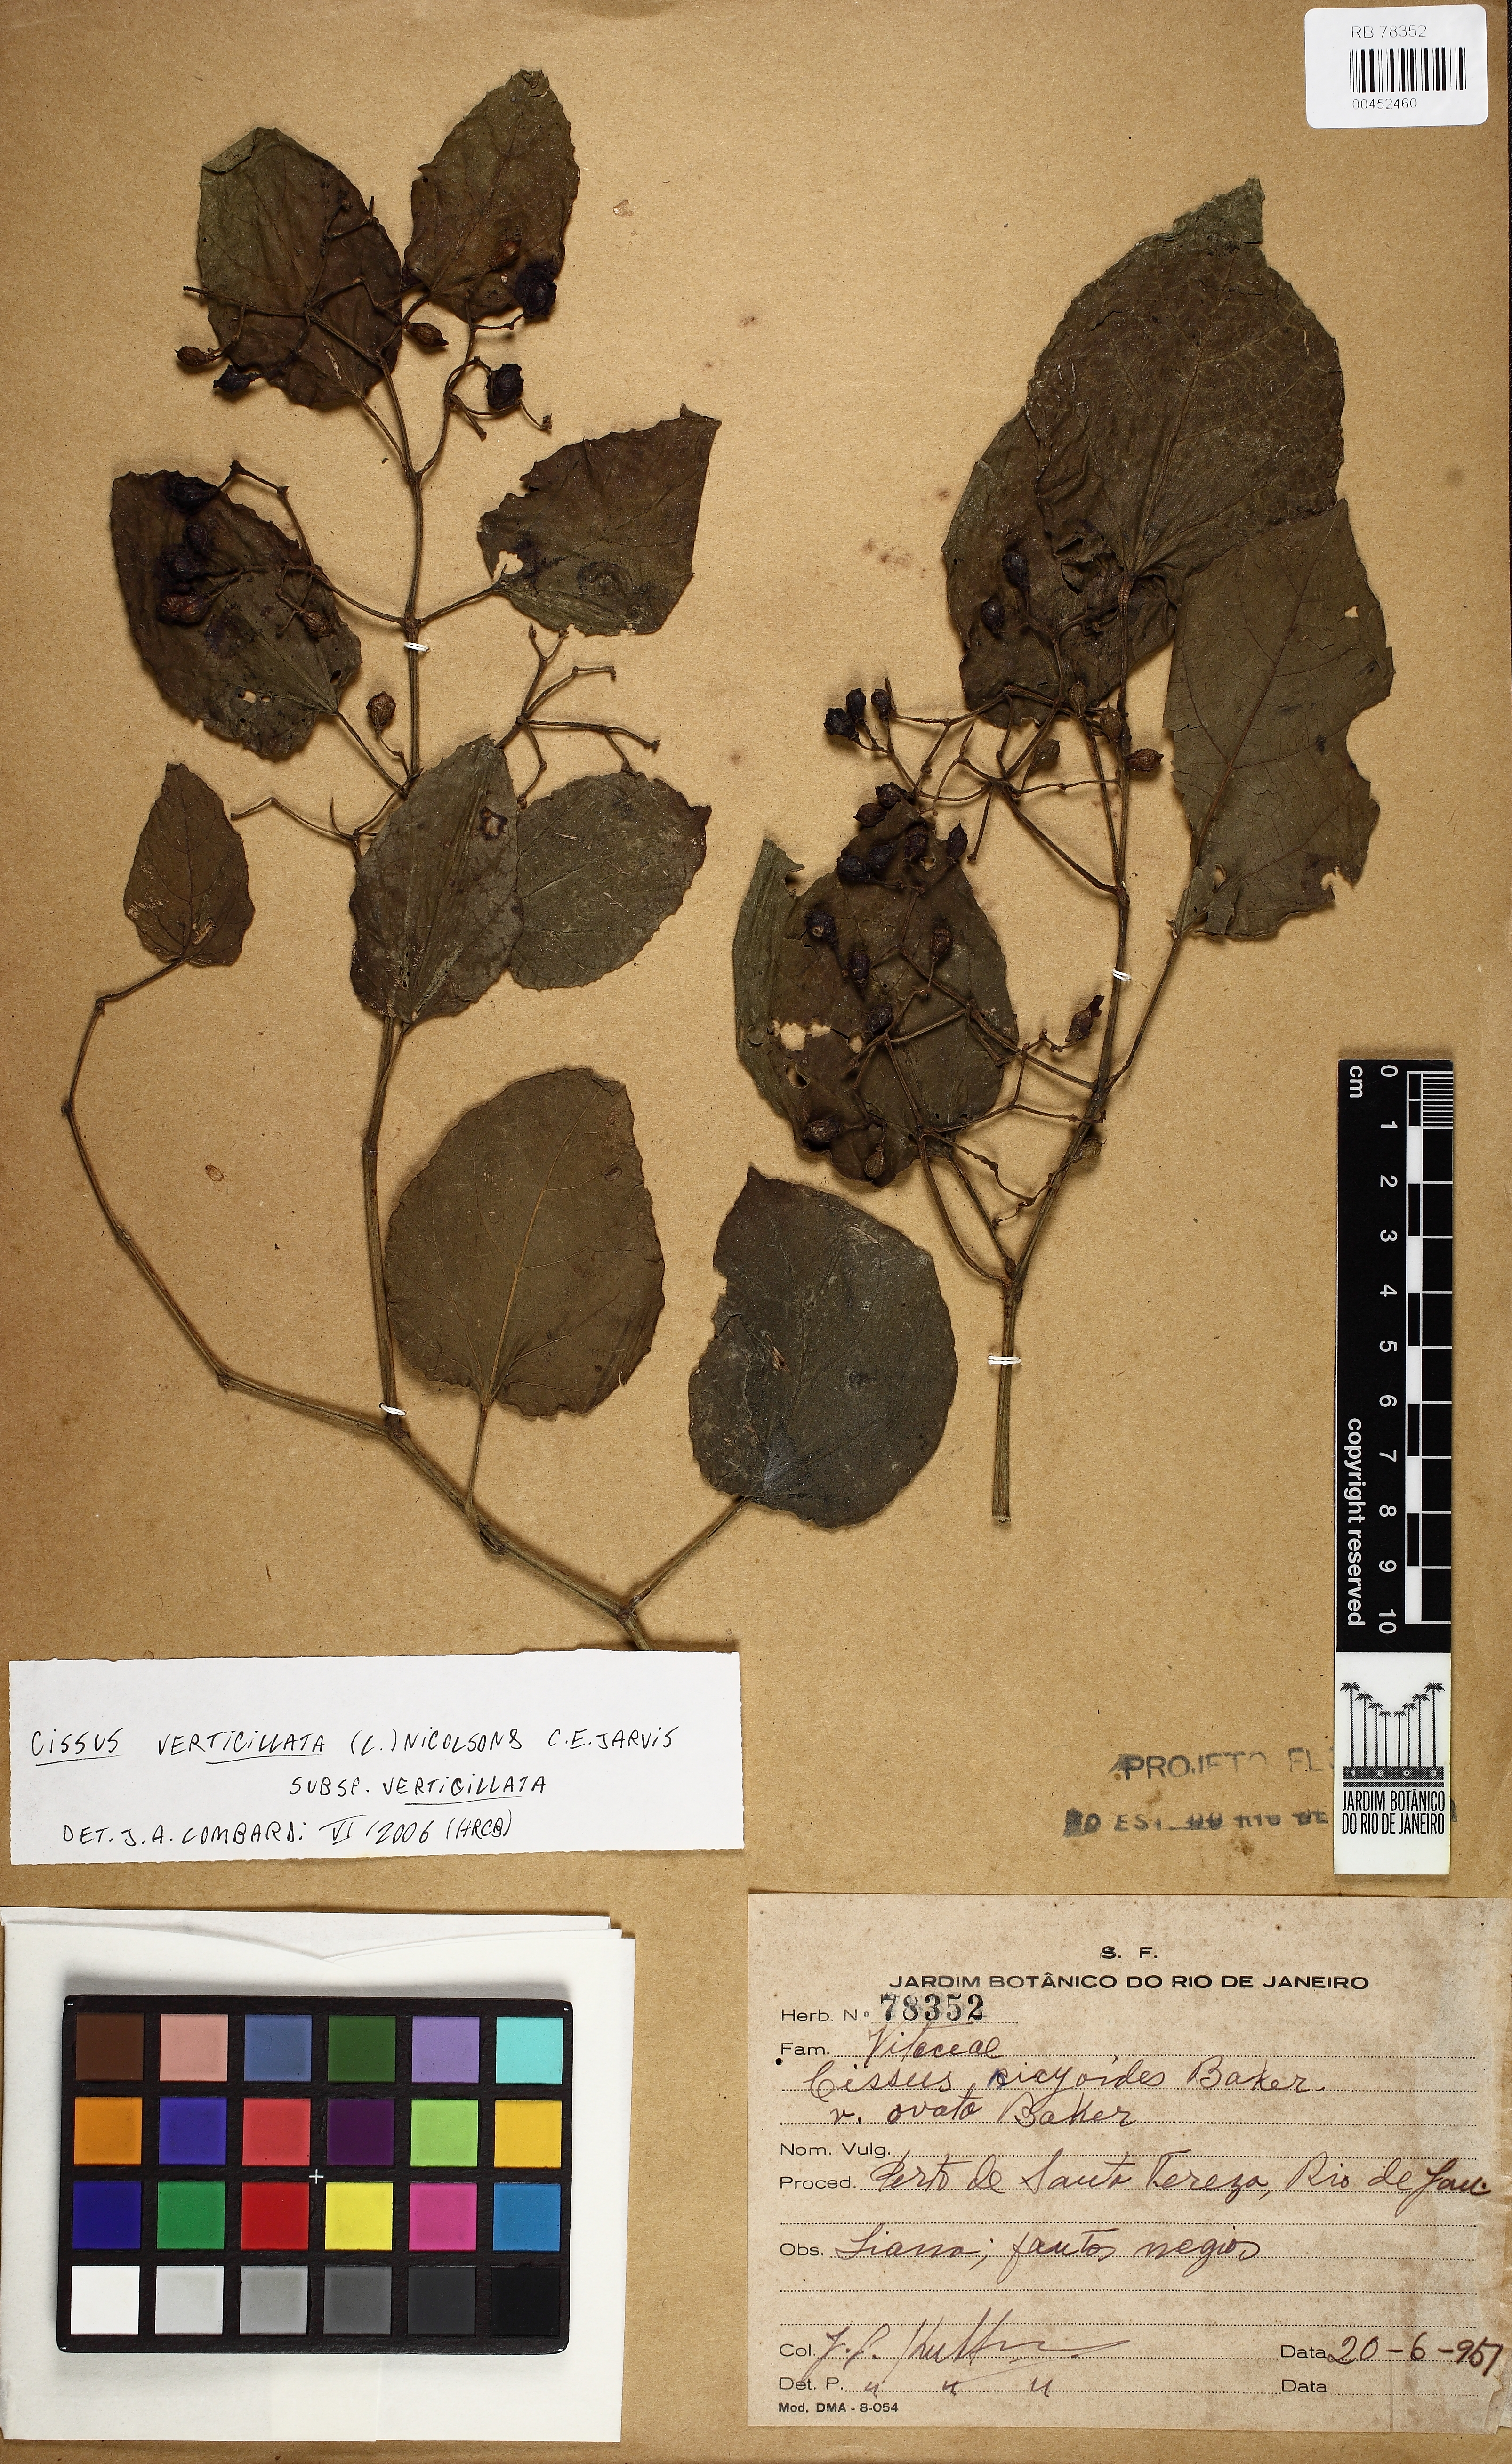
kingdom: Plantae
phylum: Tracheophyta
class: Magnoliopsida
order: Vitales
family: Vitaceae
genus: Cissus
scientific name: Cissus verticillata
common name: Princess vine
